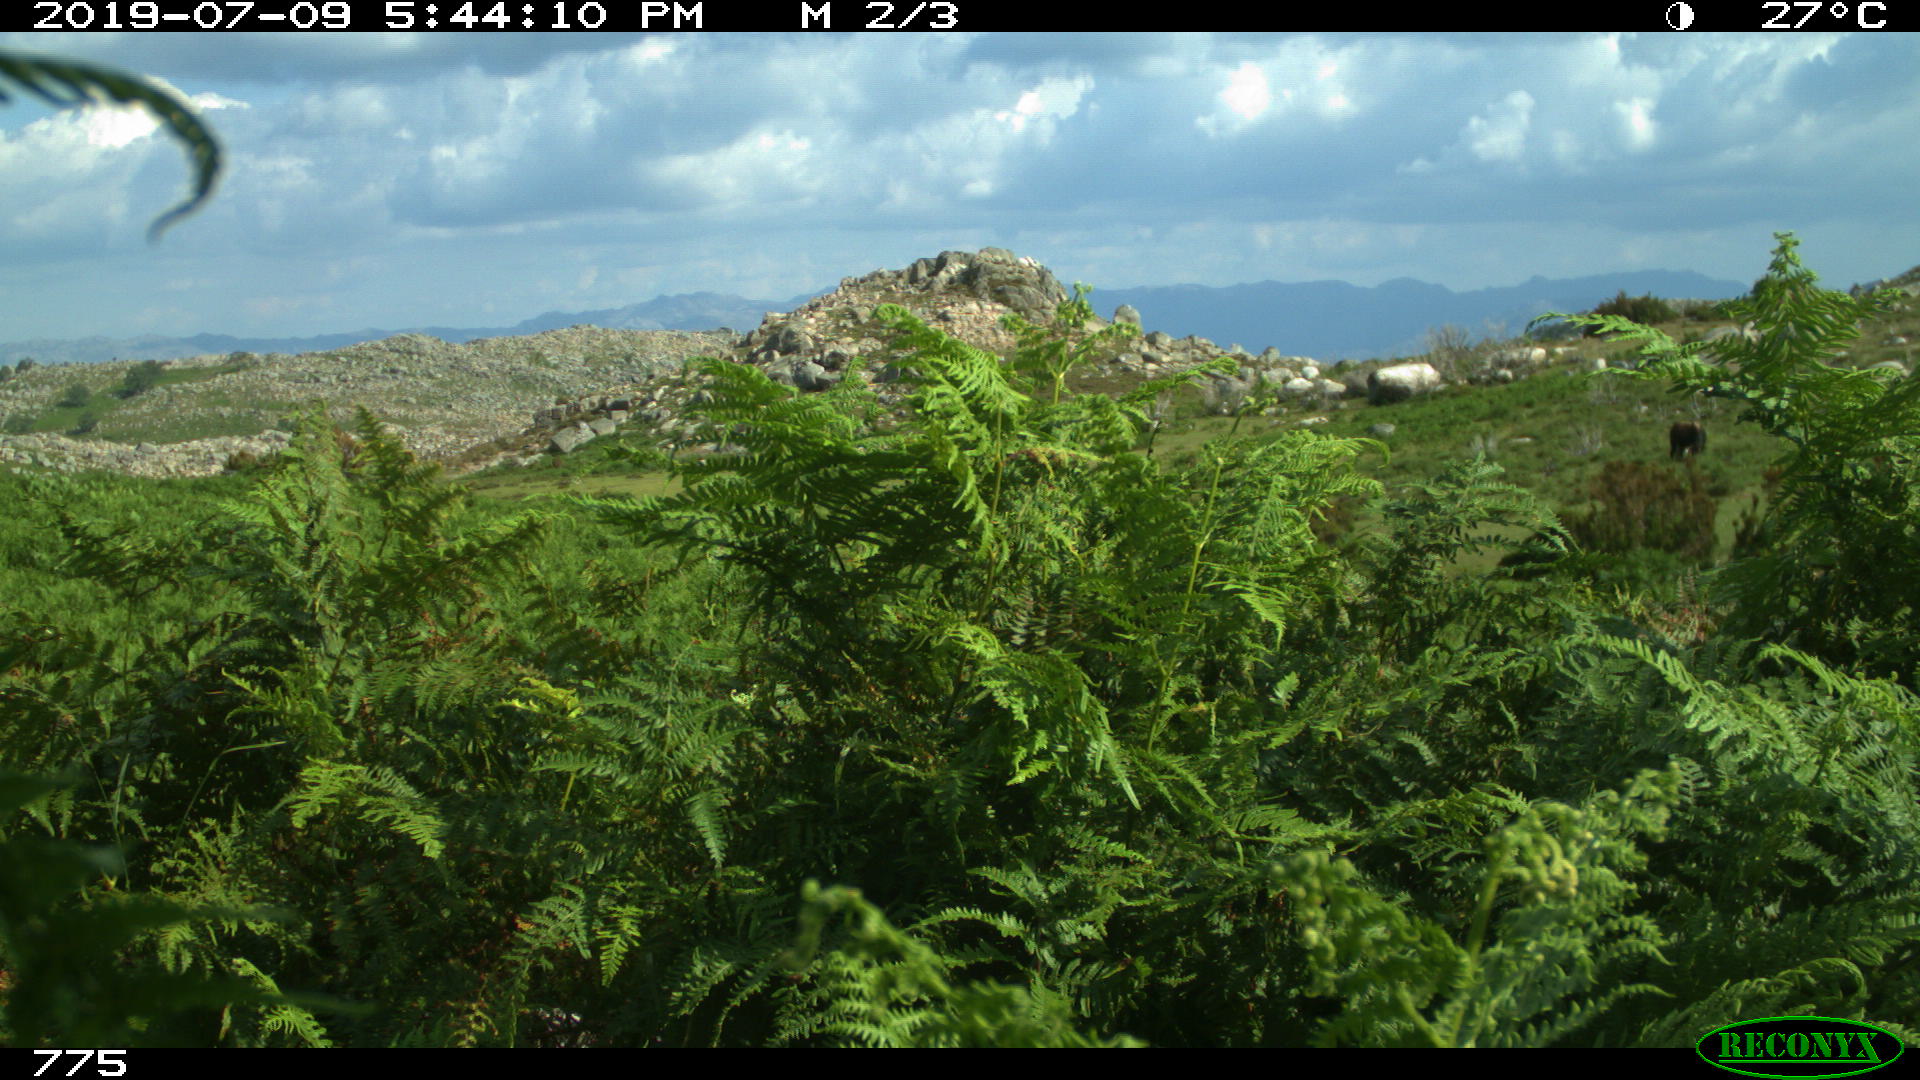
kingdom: Animalia
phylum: Chordata
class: Mammalia
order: Perissodactyla
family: Equidae
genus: Equus
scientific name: Equus caballus
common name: Horse
